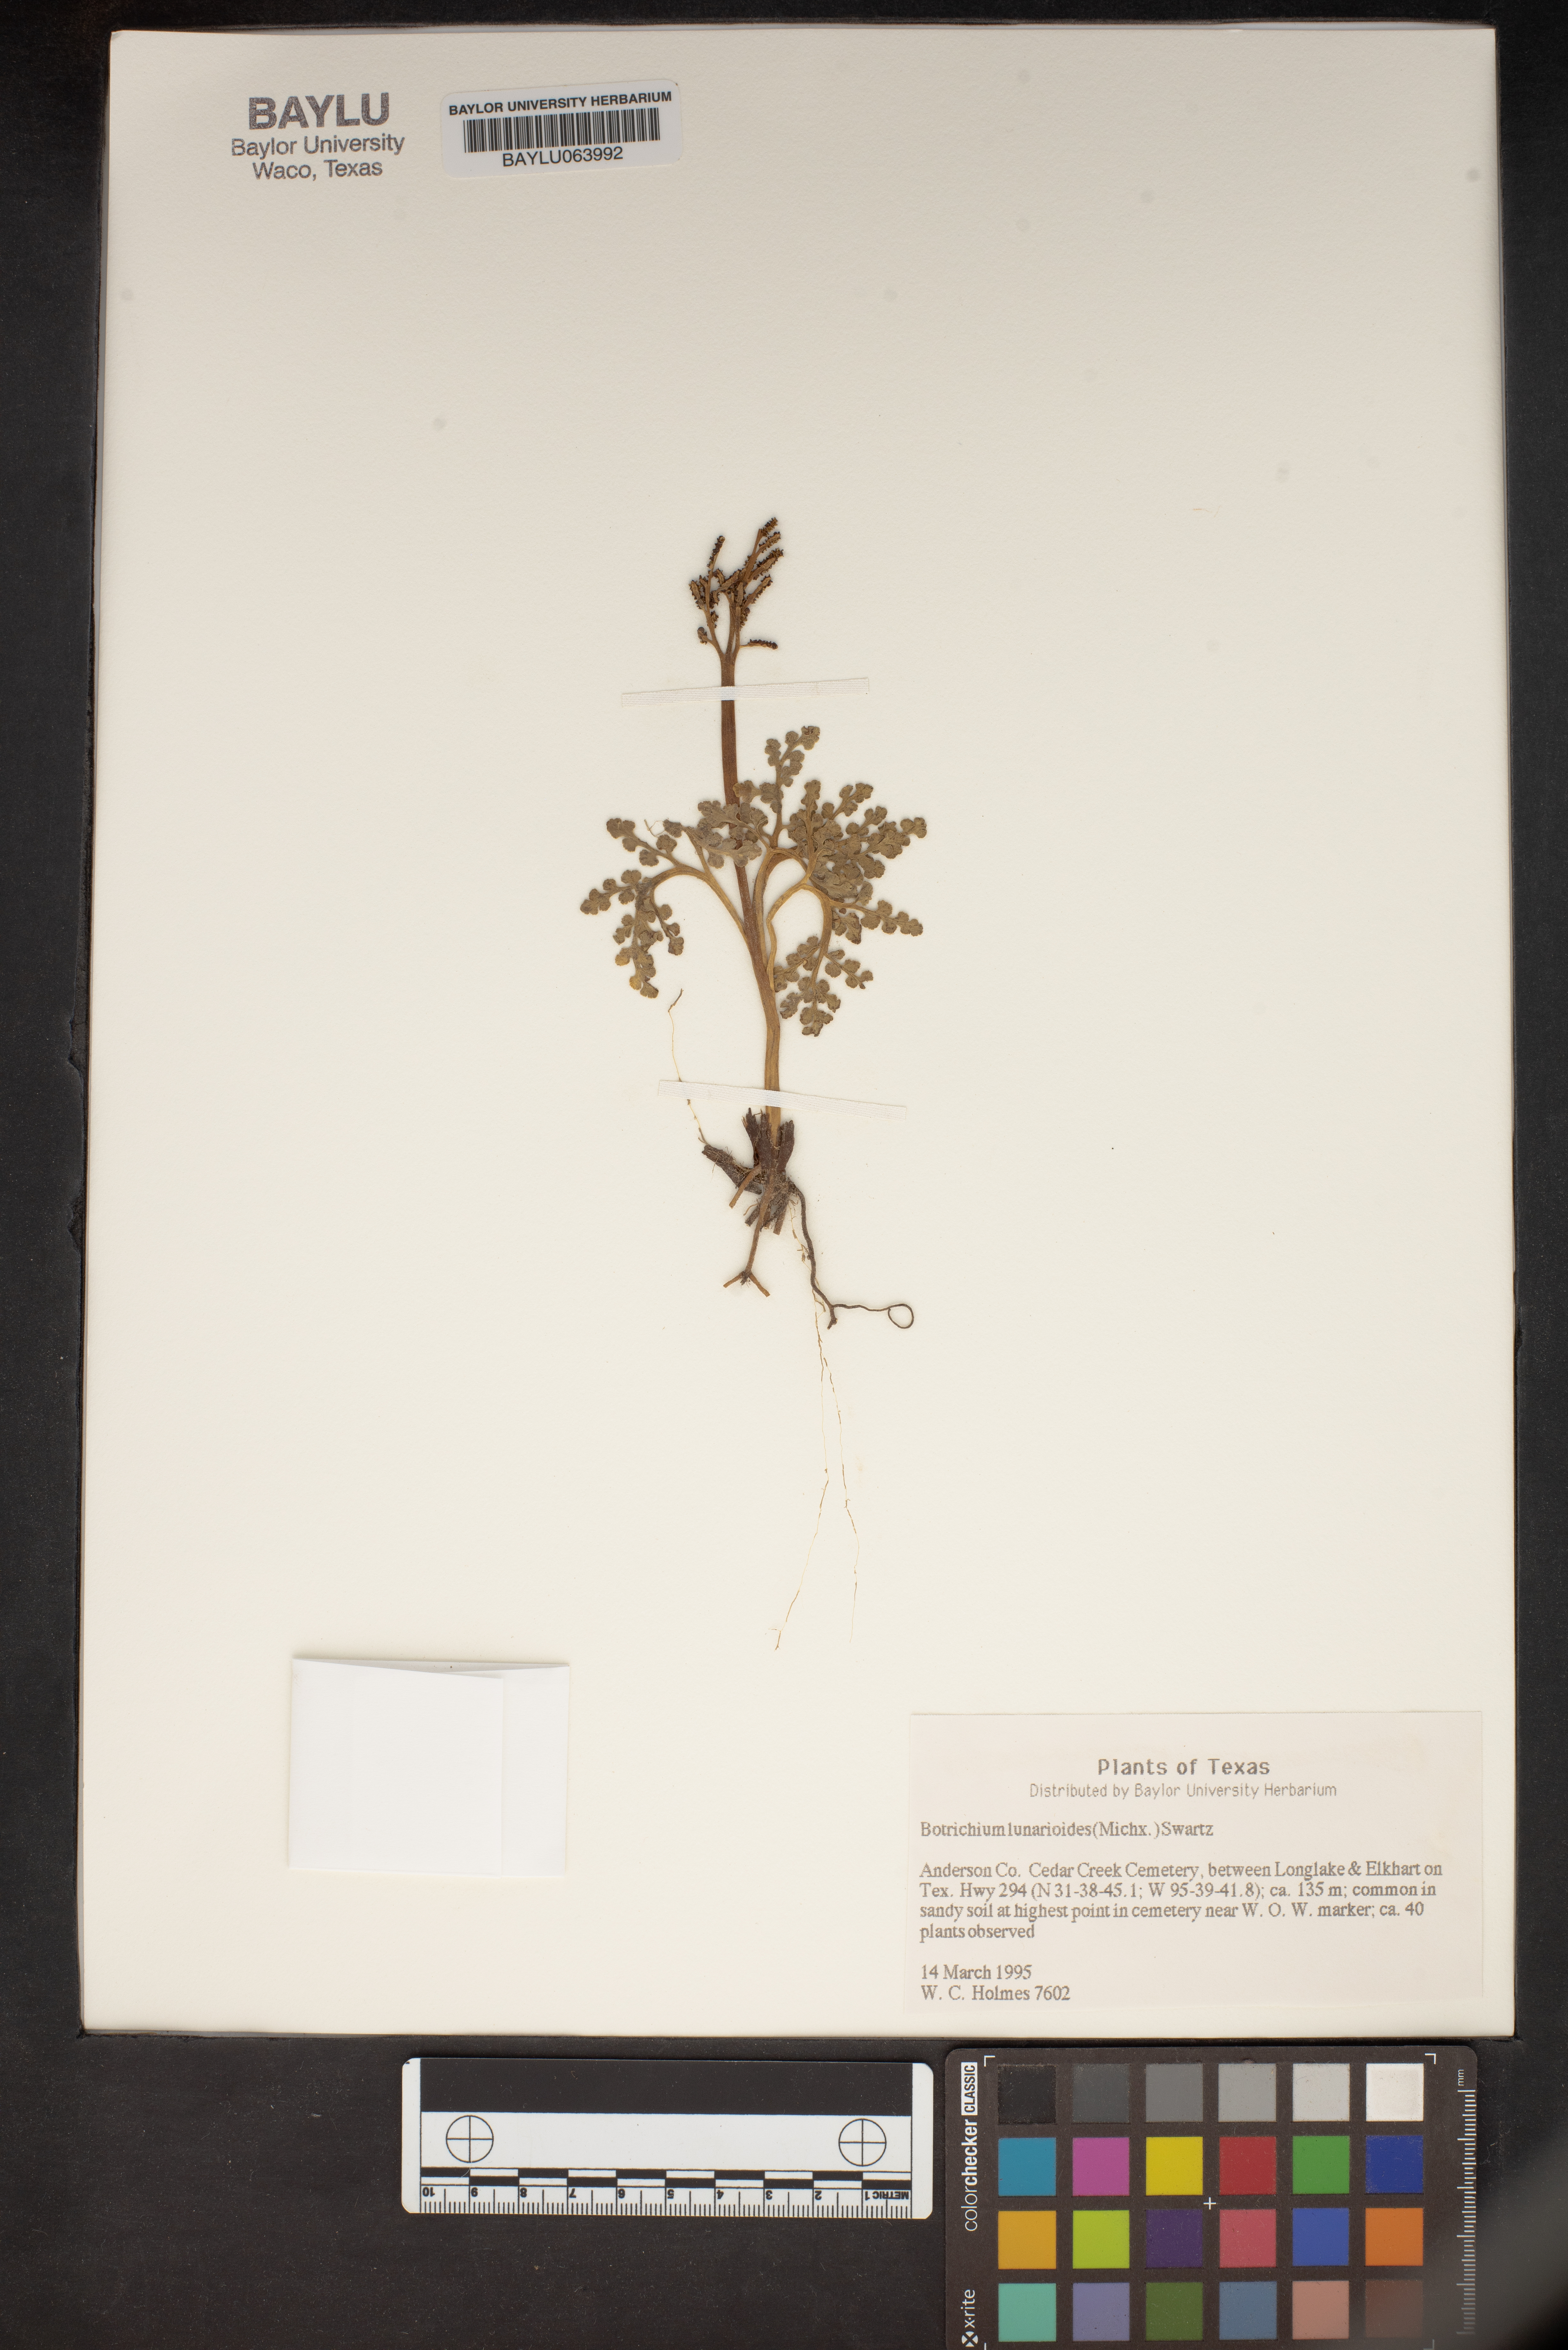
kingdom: Plantae
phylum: Tracheophyta
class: Polypodiopsida
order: Ophioglossales
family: Ophioglossaceae
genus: Sceptridium
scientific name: Sceptridium lunarioides
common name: Prostrate grapefern
